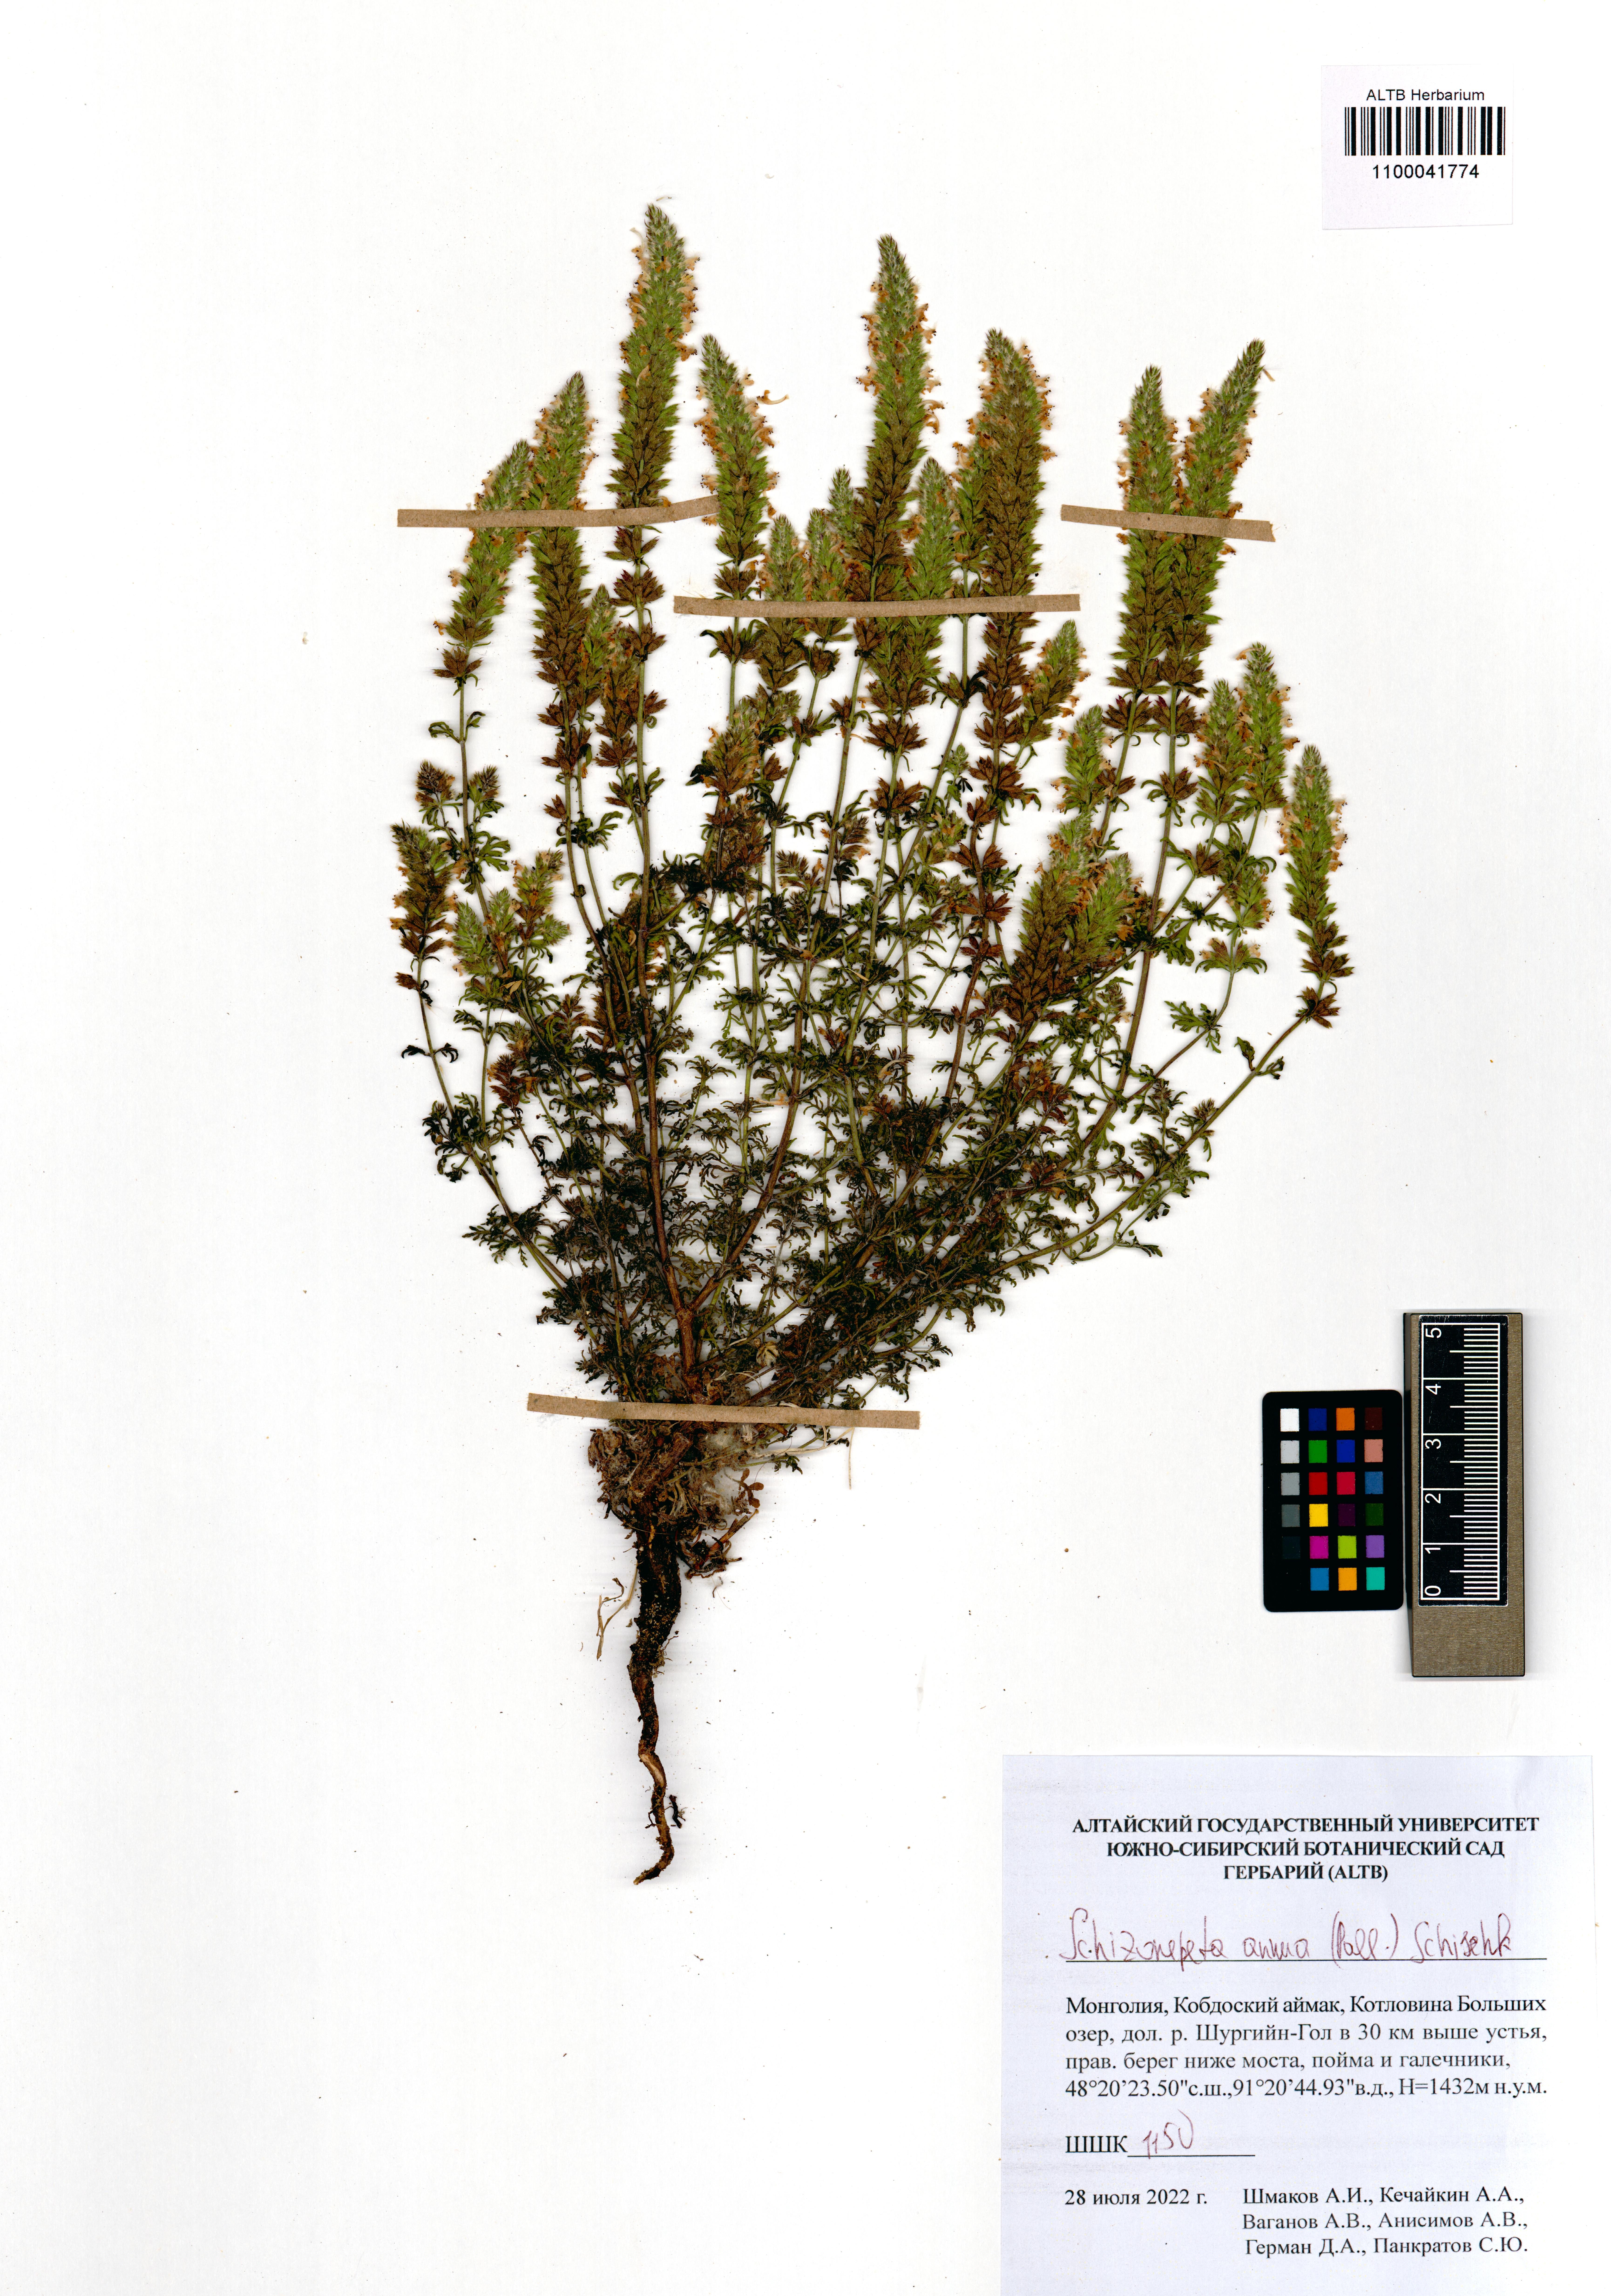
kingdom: Plantae
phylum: Tracheophyta
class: Magnoliopsida
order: Lamiales
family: Lamiaceae
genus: Nepeta
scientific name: Nepeta annua
